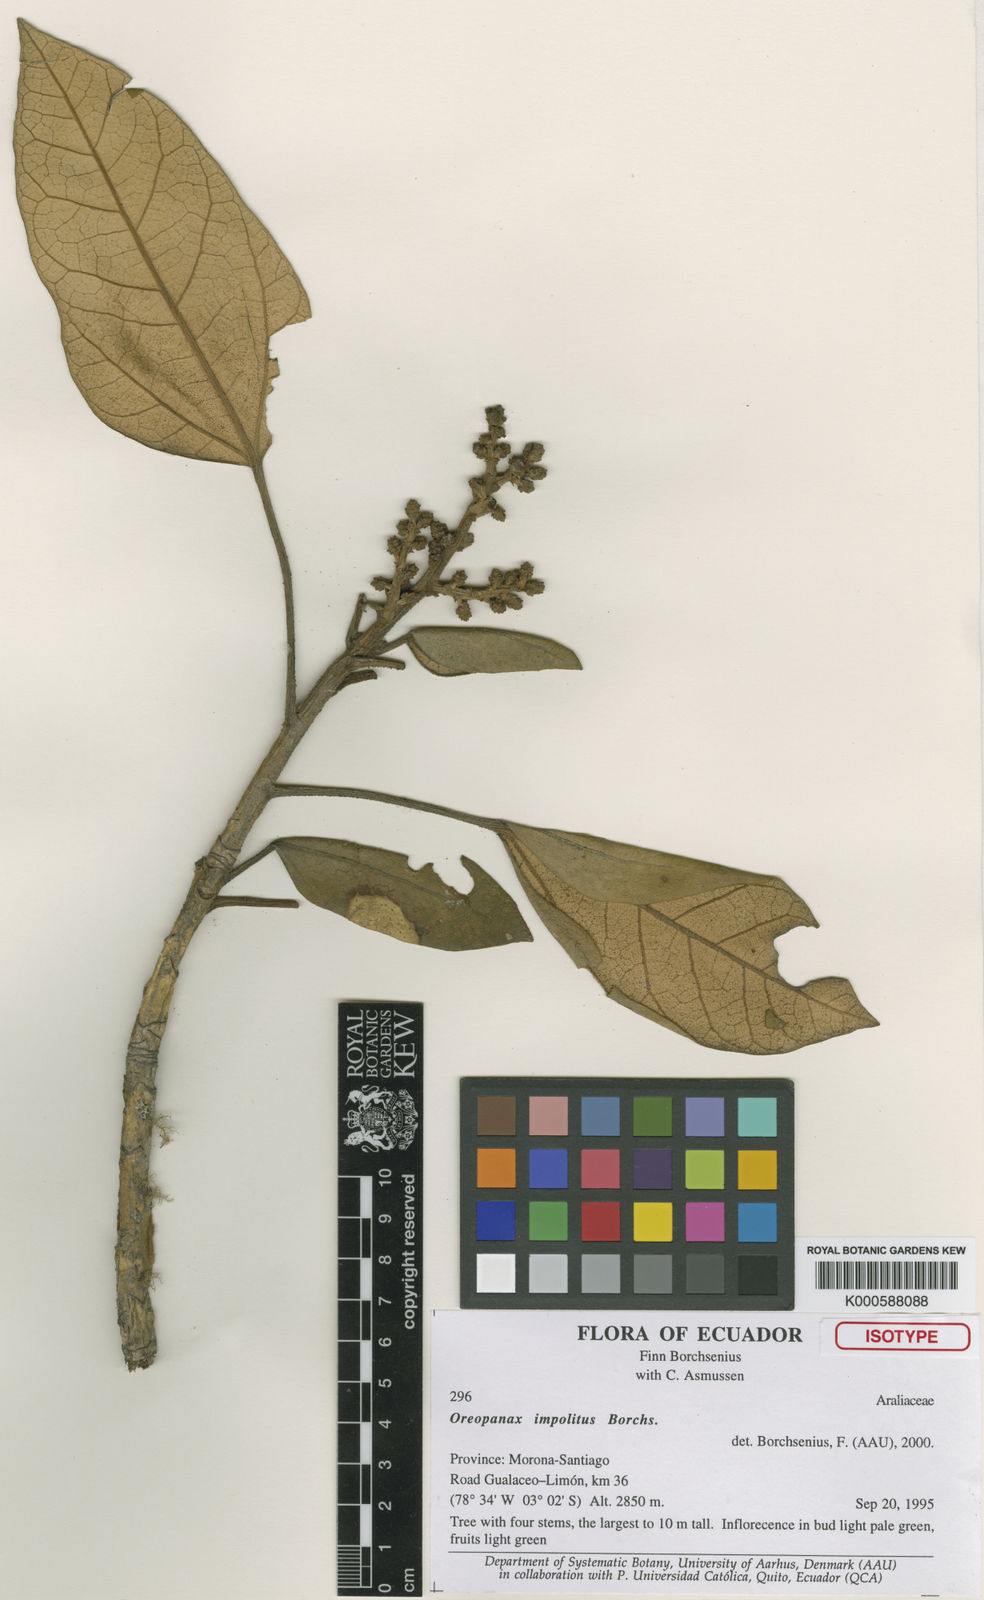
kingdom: Plantae
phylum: Tracheophyta
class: Magnoliopsida
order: Apiales
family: Araliaceae
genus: Oreopanax
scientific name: Oreopanax impolitus
